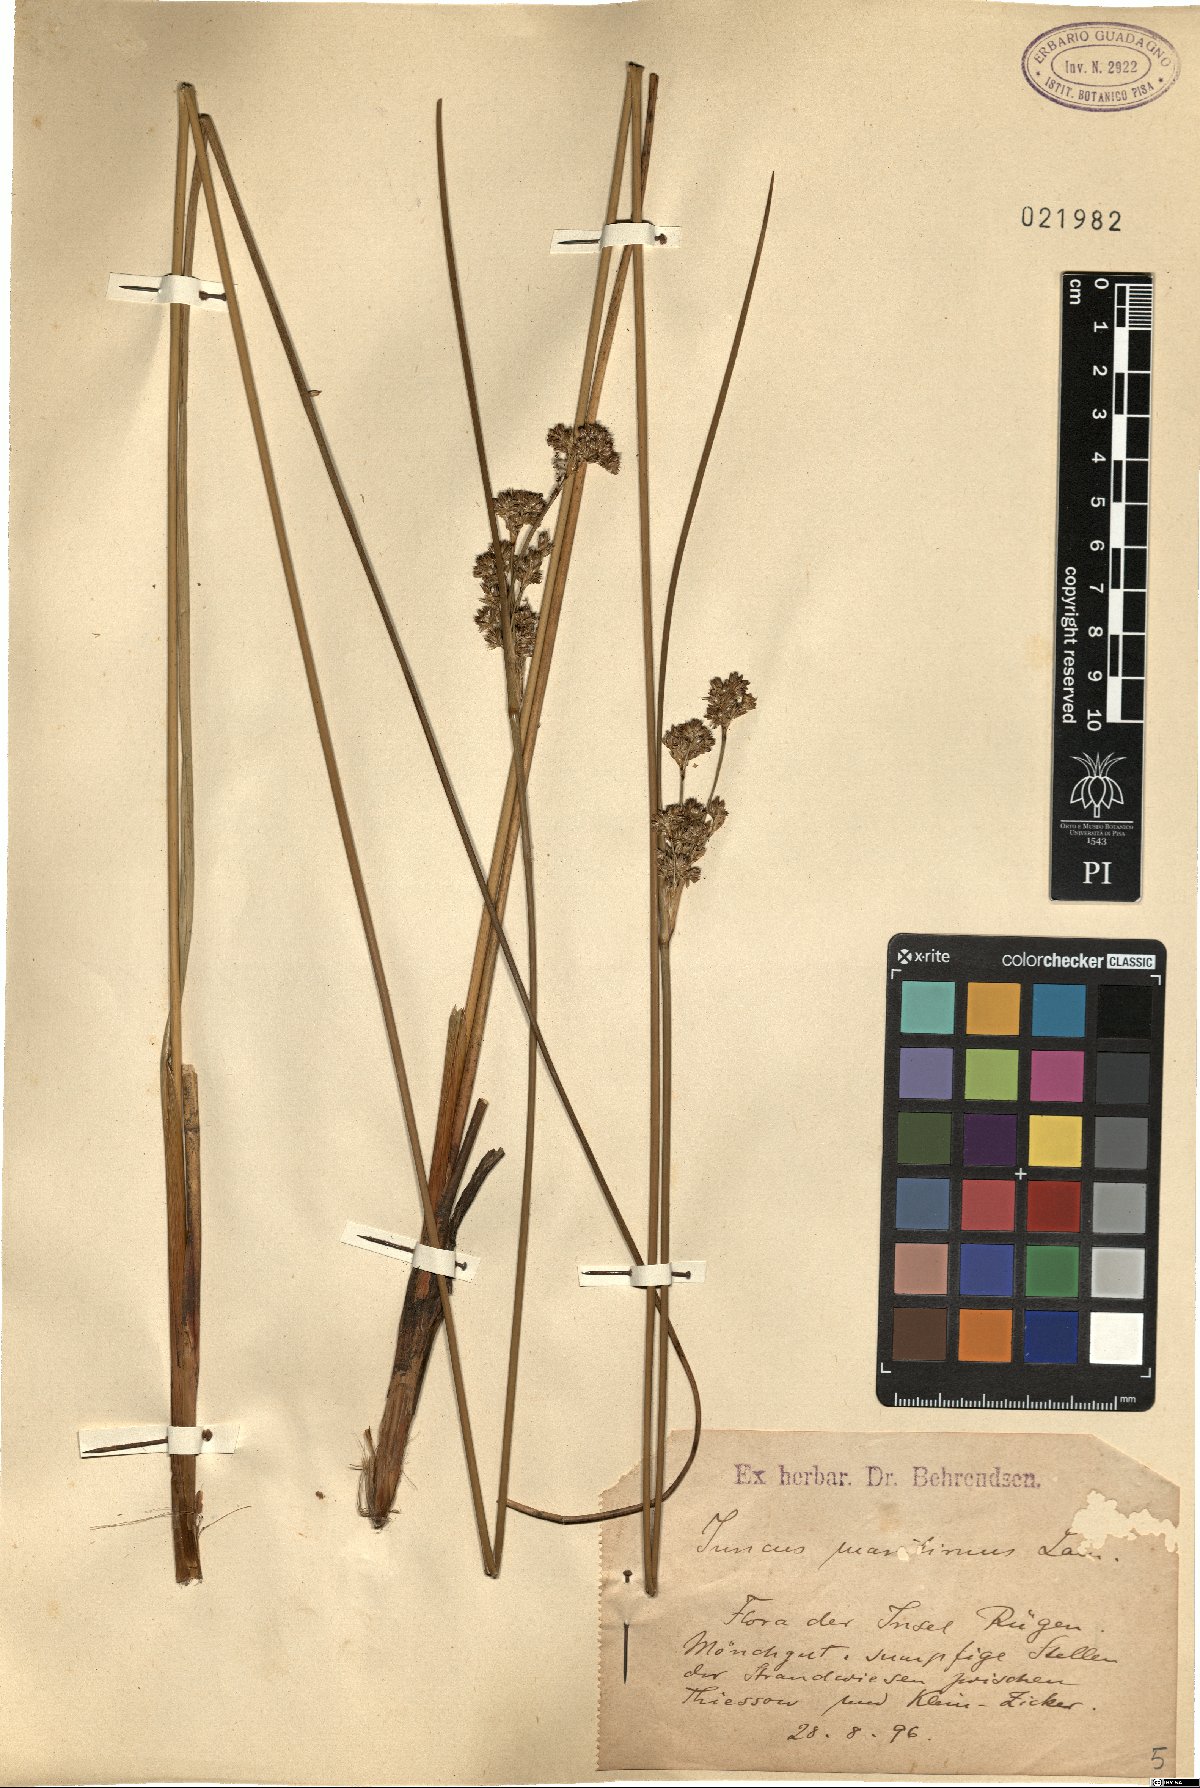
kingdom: Plantae
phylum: Tracheophyta
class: Liliopsida
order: Poales
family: Juncaceae
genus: Juncus
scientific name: Juncus maritimus
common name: Sea rush
